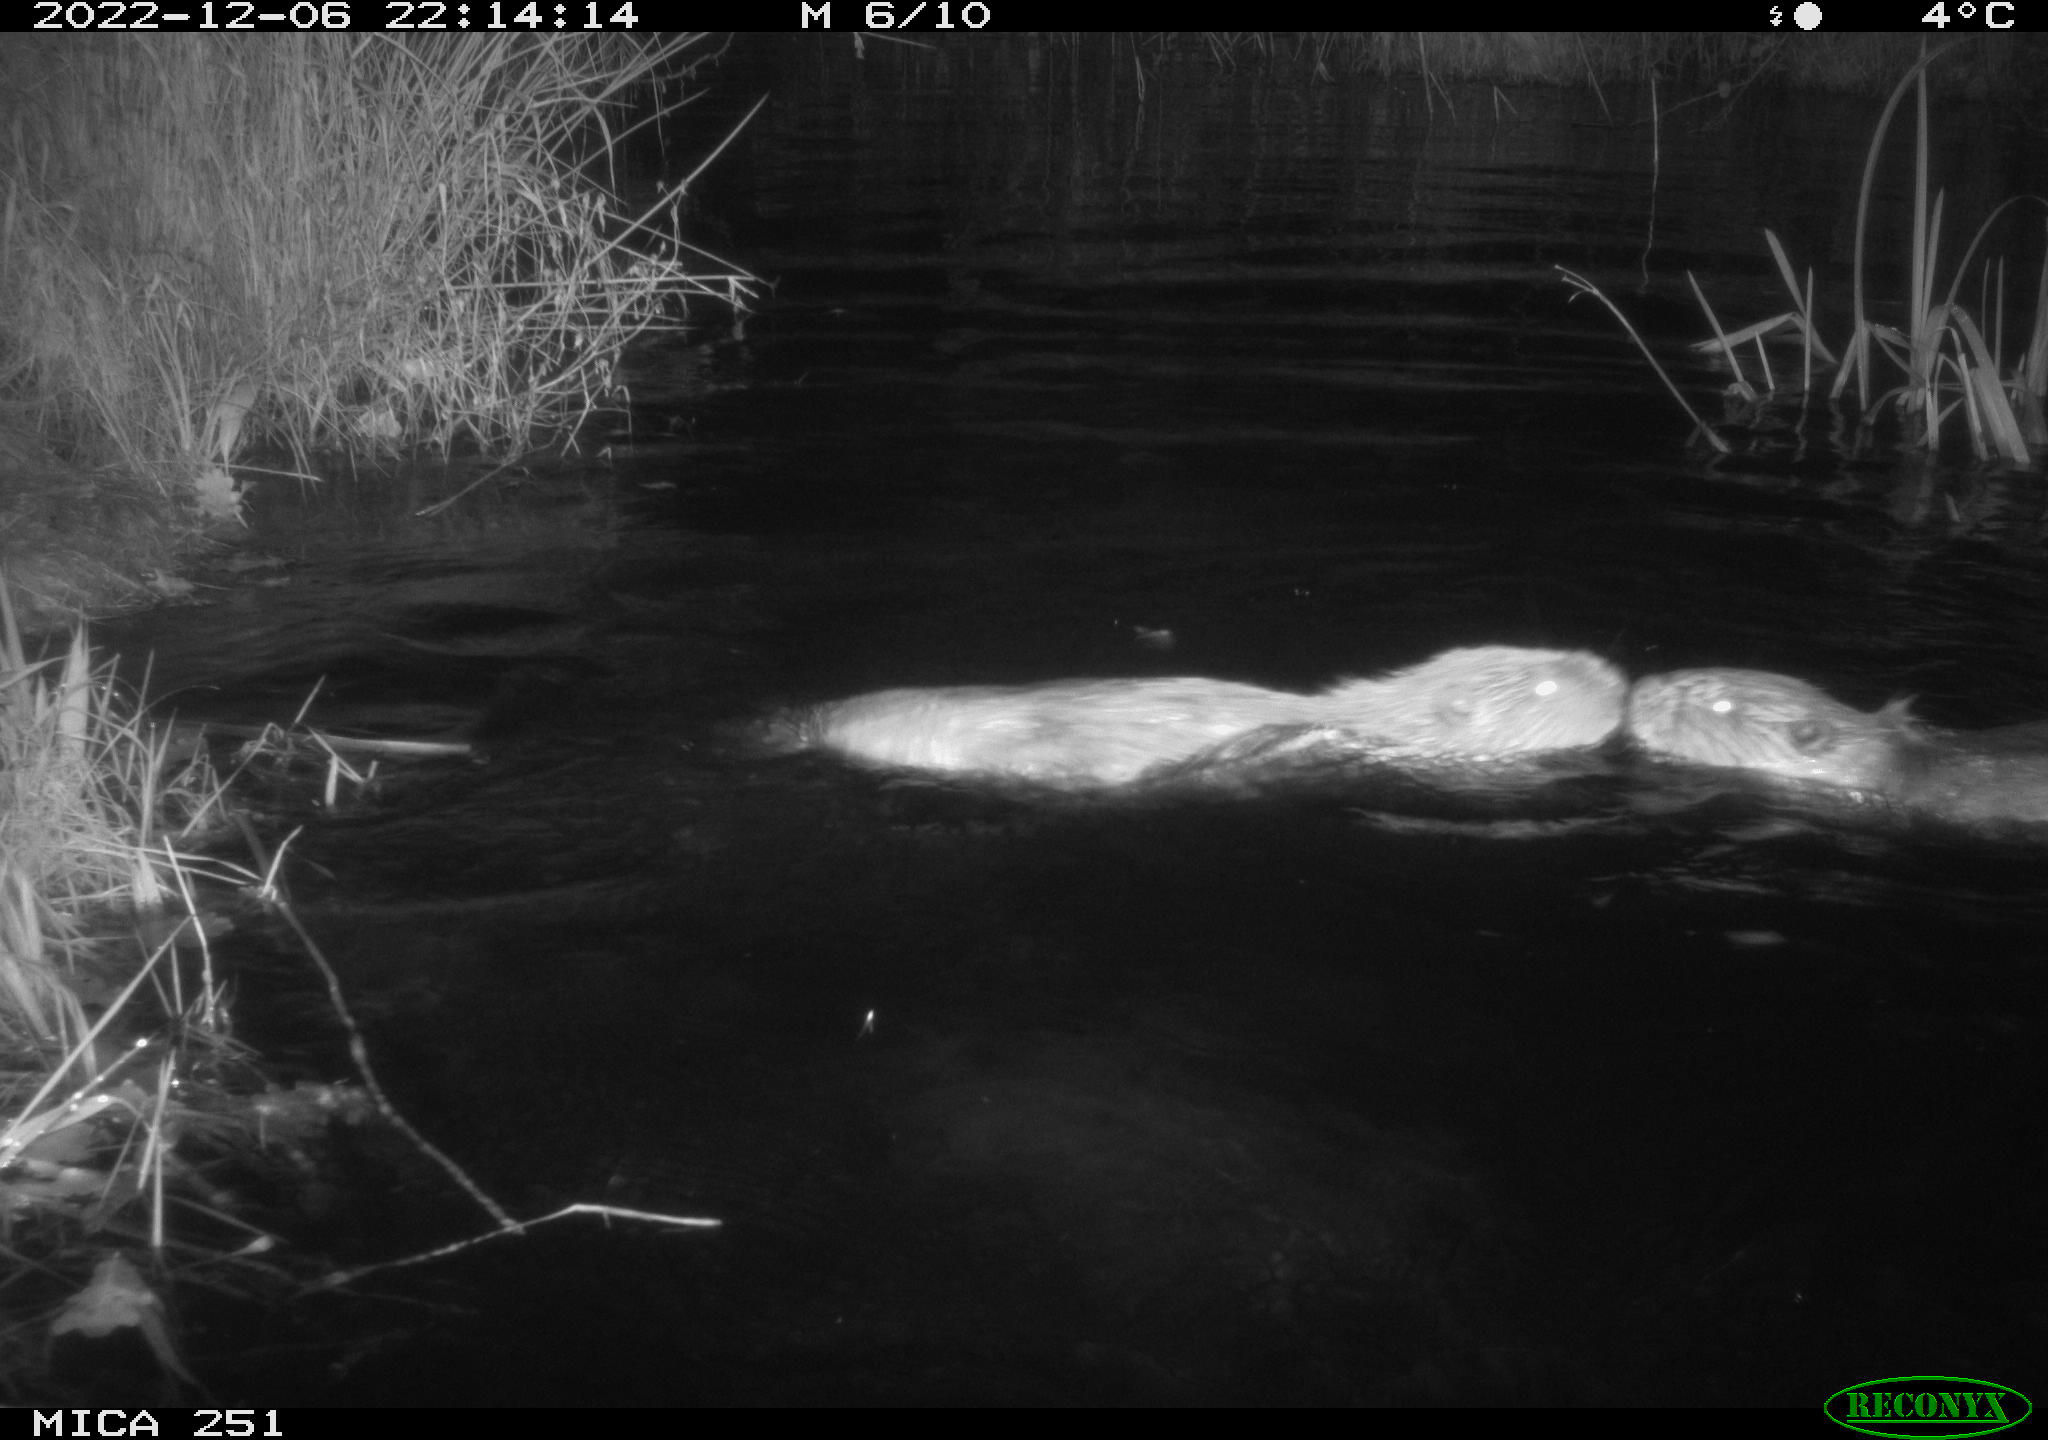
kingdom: Animalia
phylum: Chordata
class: Mammalia
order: Rodentia
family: Castoridae
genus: Castor
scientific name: Castor fiber
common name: Eurasian beaver
